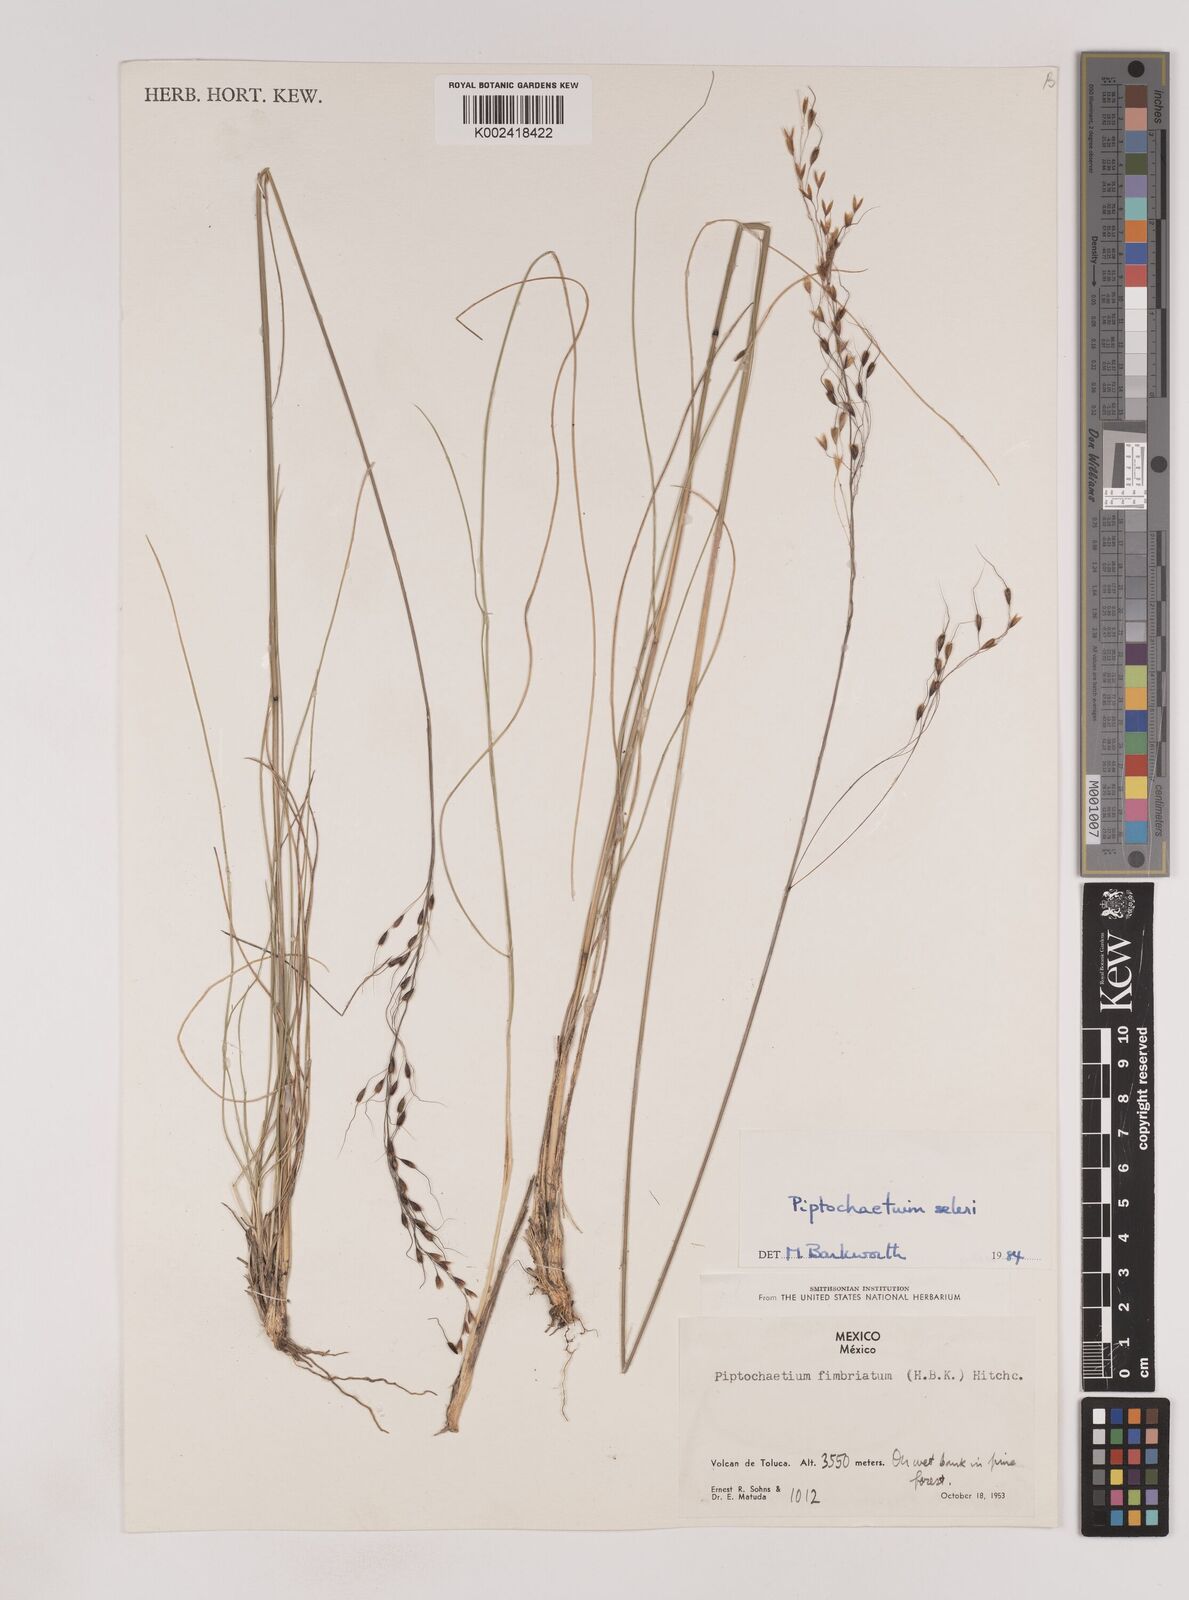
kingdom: Plantae
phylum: Tracheophyta
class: Liliopsida
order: Poales
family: Poaceae
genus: Piptochaetium
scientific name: Piptochaetium seleri
